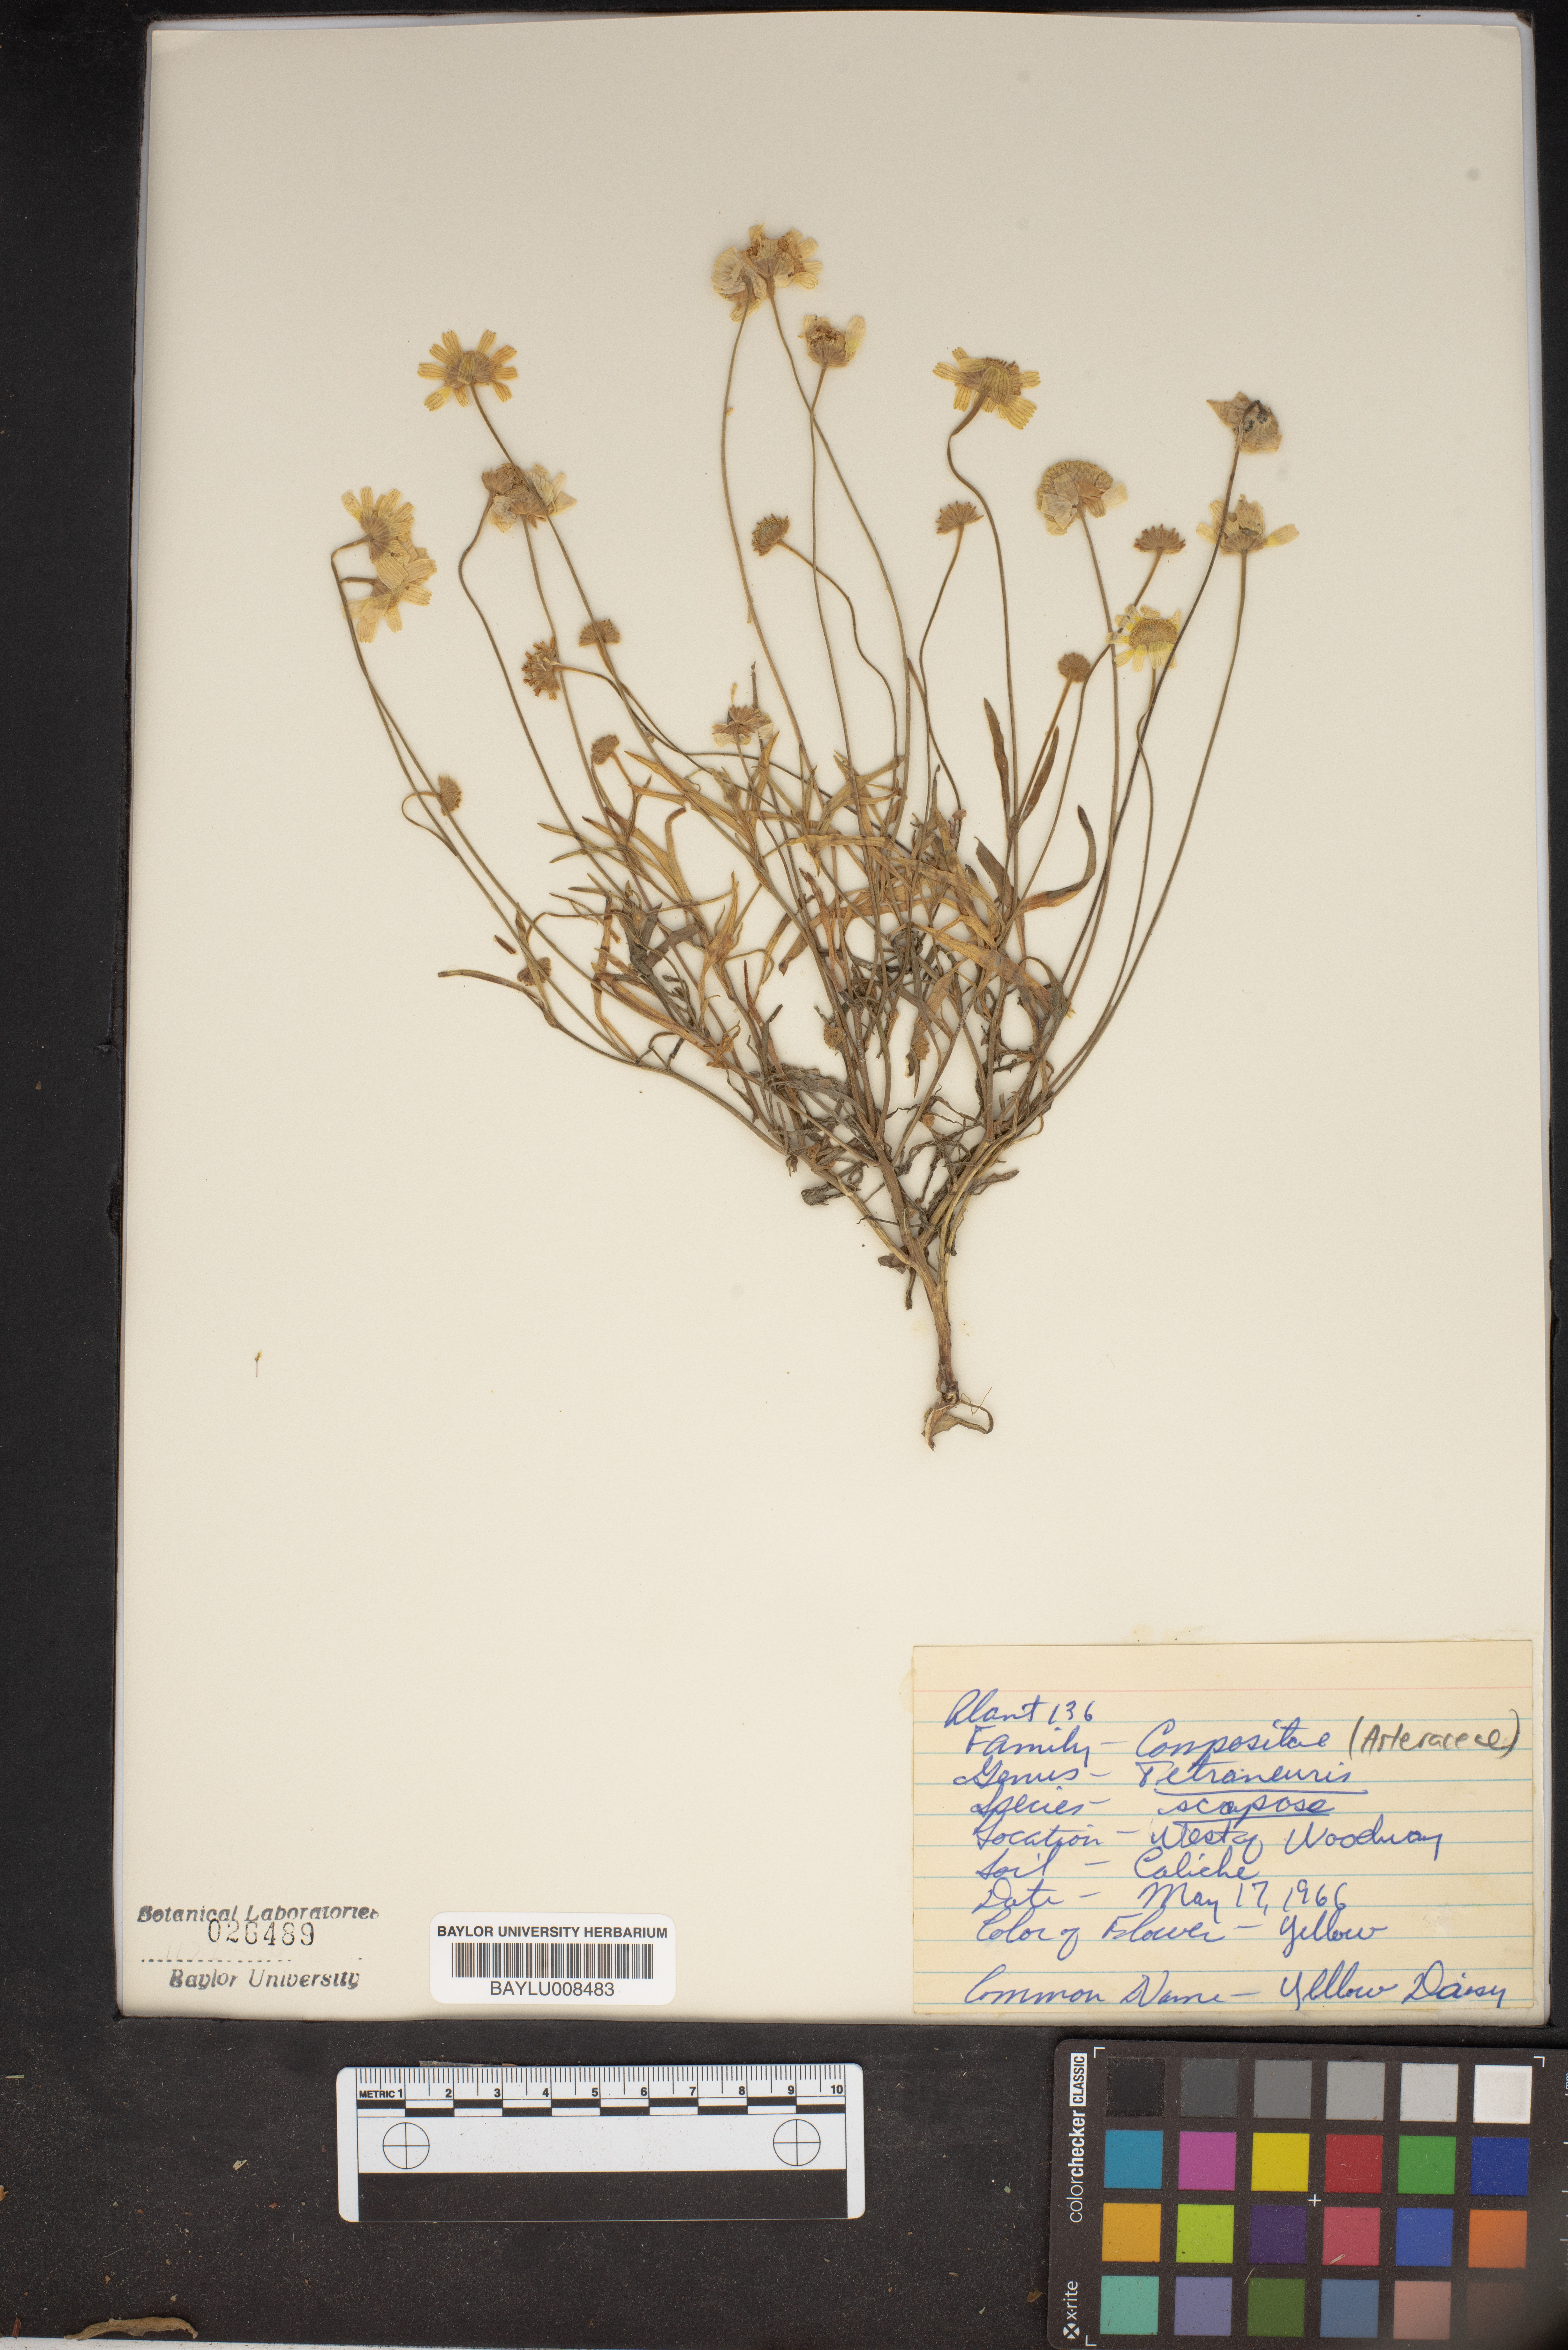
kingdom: Plantae
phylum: Tracheophyta
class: Magnoliopsida
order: Asterales
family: Asteraceae
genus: Tetraneuris
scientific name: Tetraneuris scaposa
